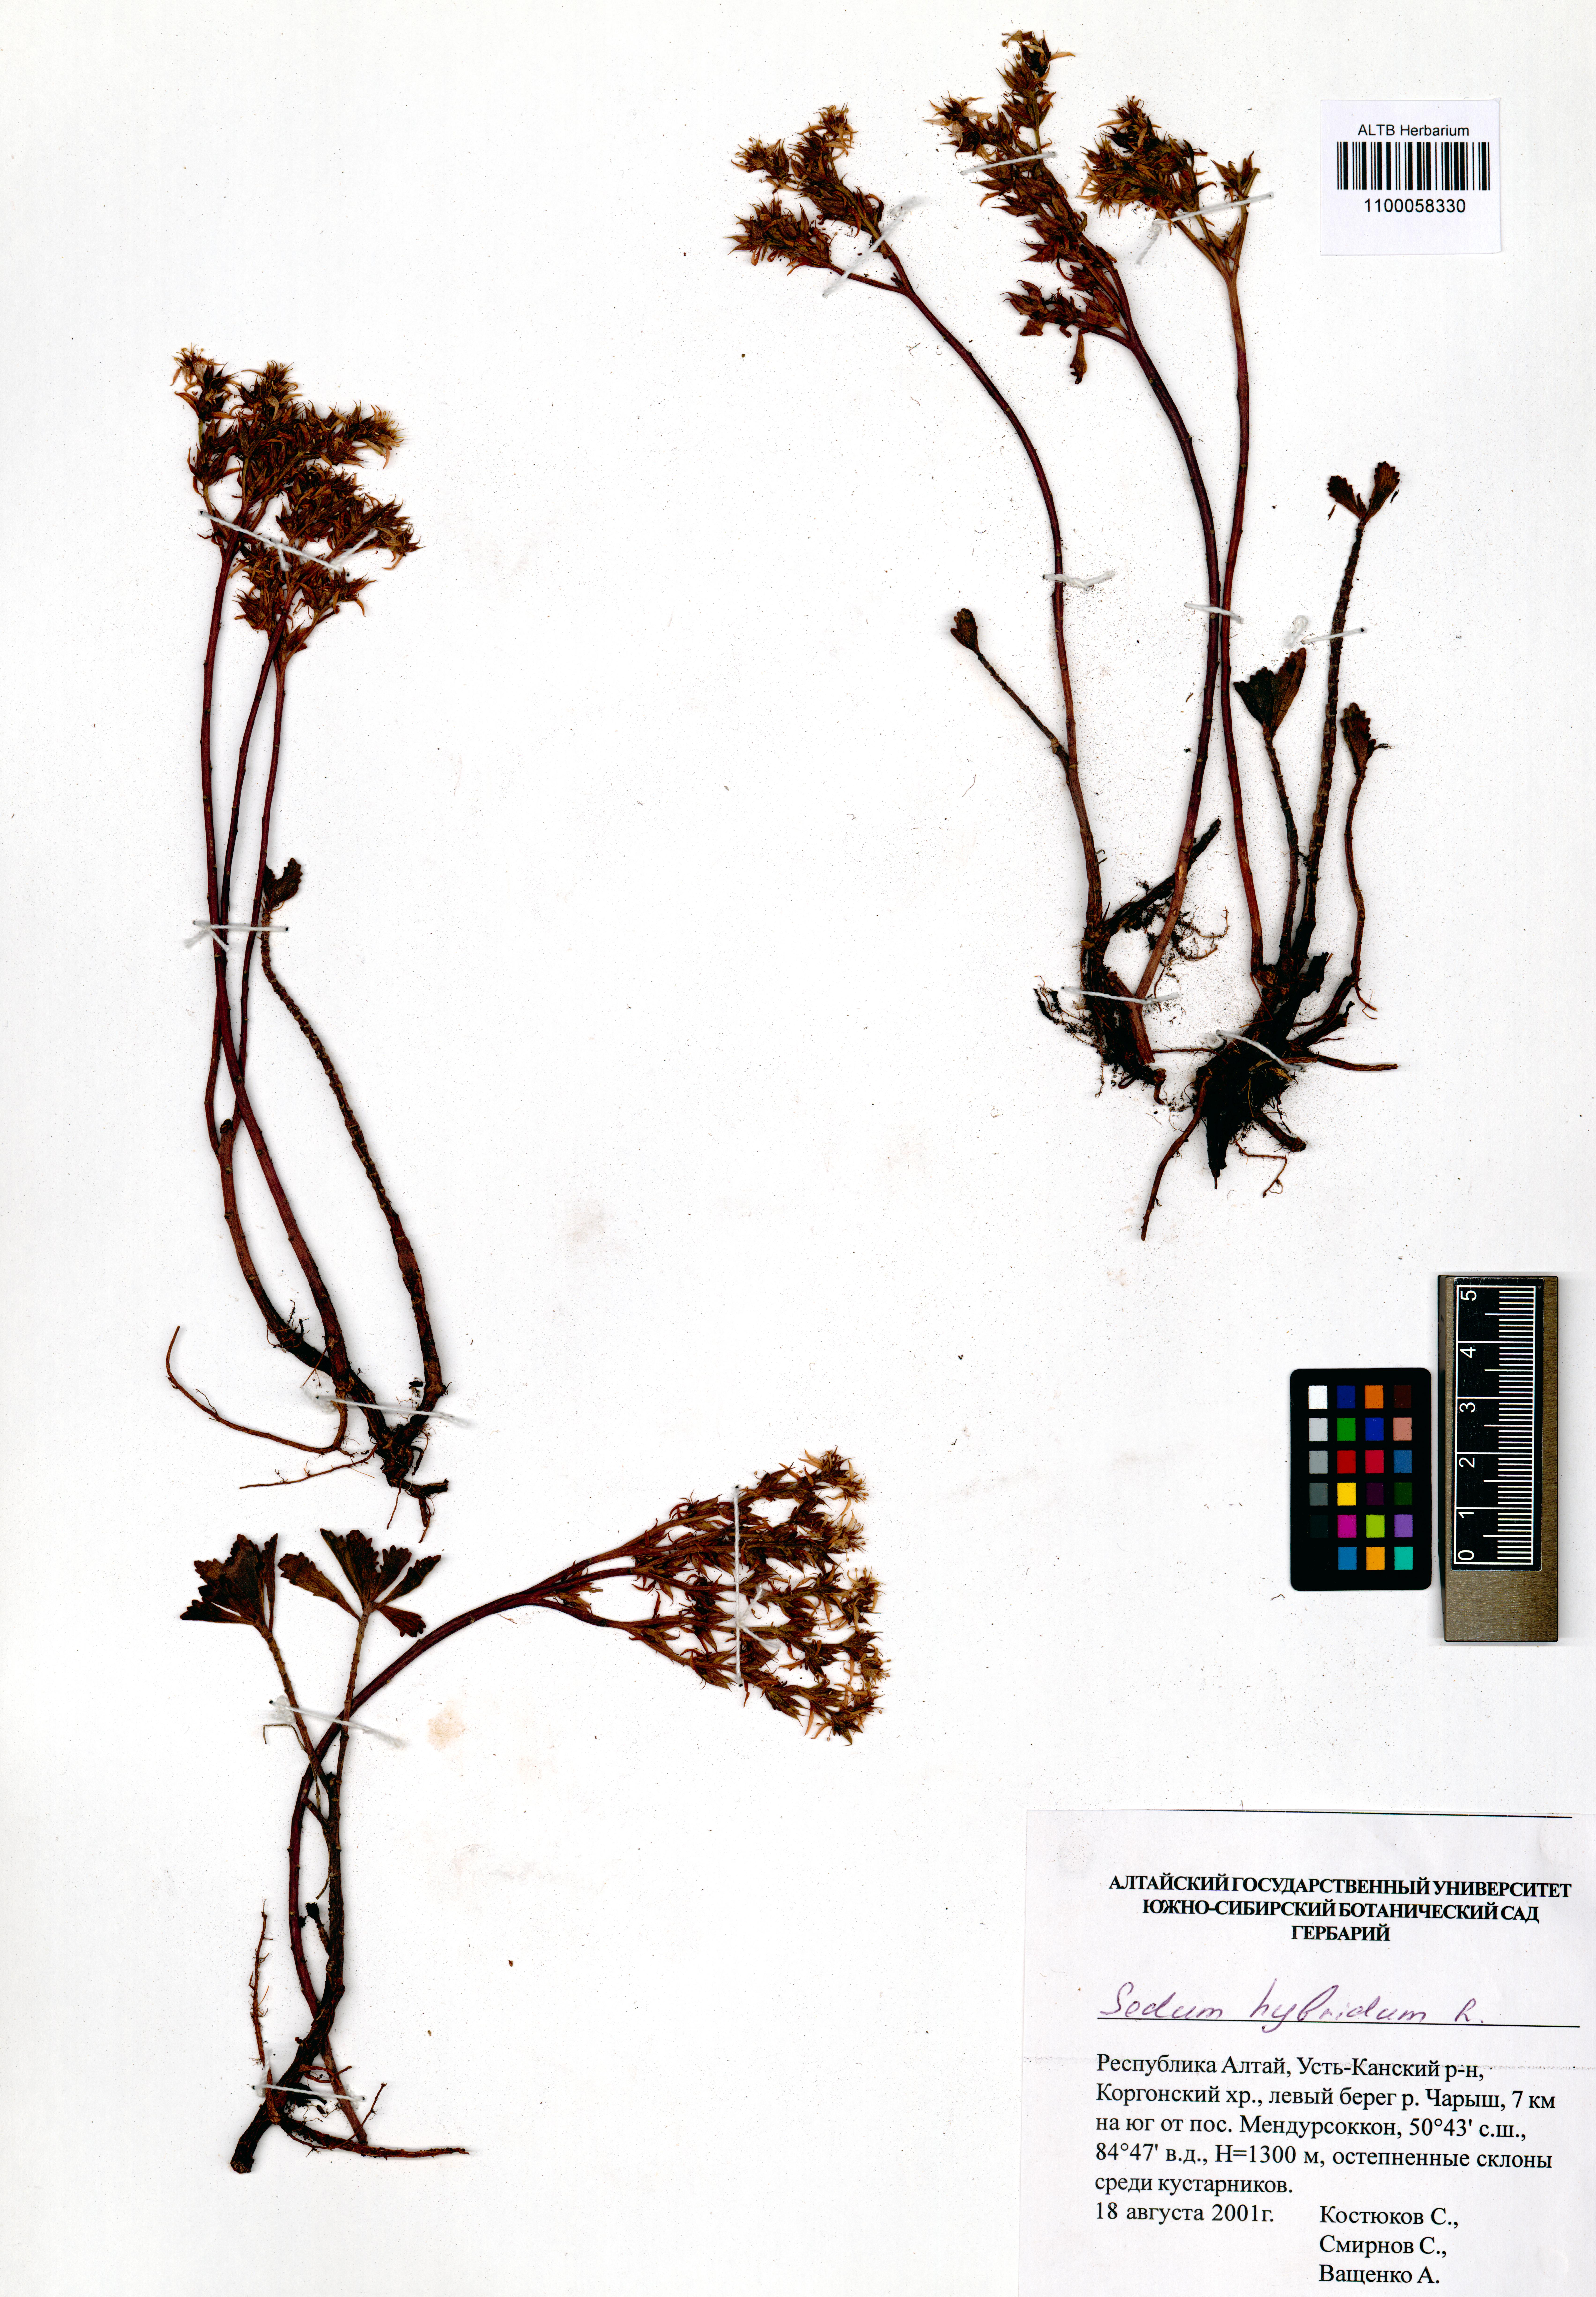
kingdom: Plantae
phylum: Tracheophyta
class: Magnoliopsida
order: Saxifragales
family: Crassulaceae
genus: Phedimus
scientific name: Phedimus hybridus
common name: Hybrid stonecrop
